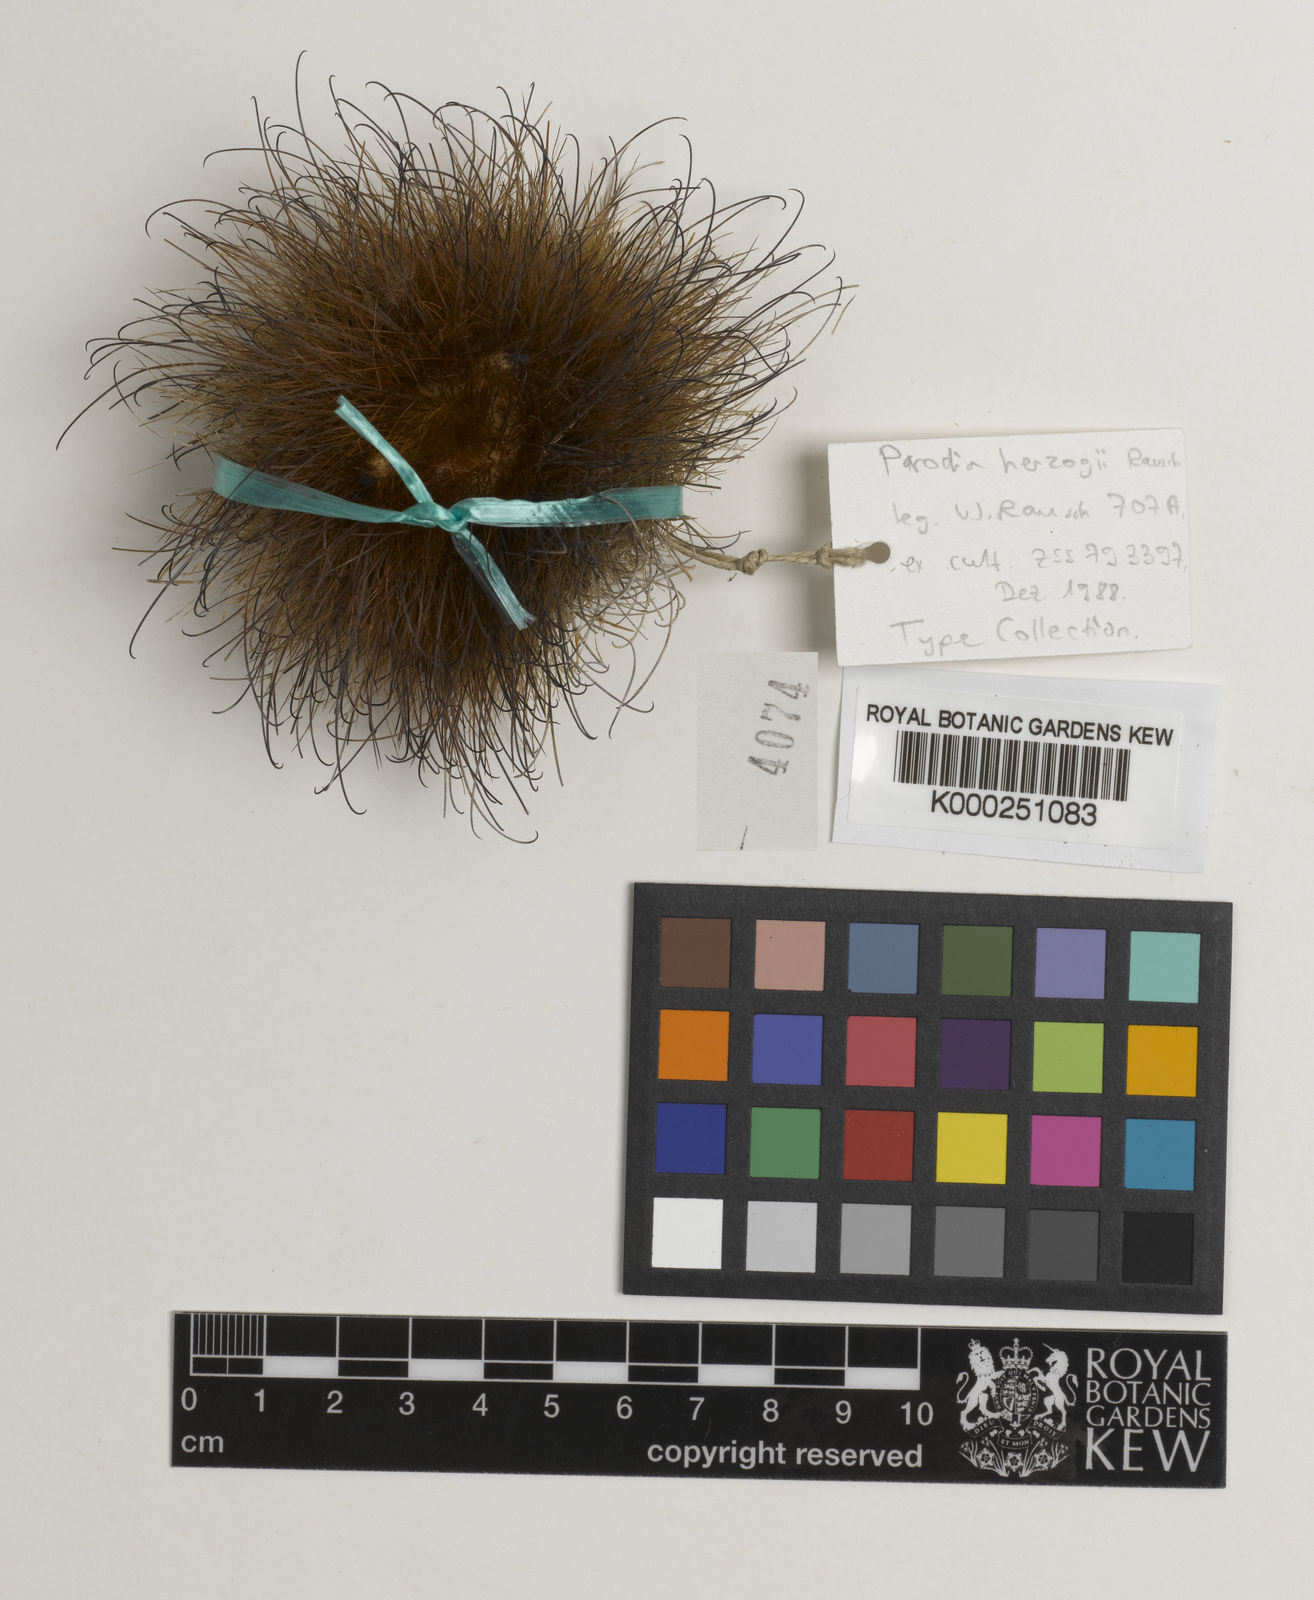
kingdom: Plantae
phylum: Tracheophyta
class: Magnoliopsida
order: Caryophyllales
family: Cactaceae
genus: Parodia
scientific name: Parodia microsperma
